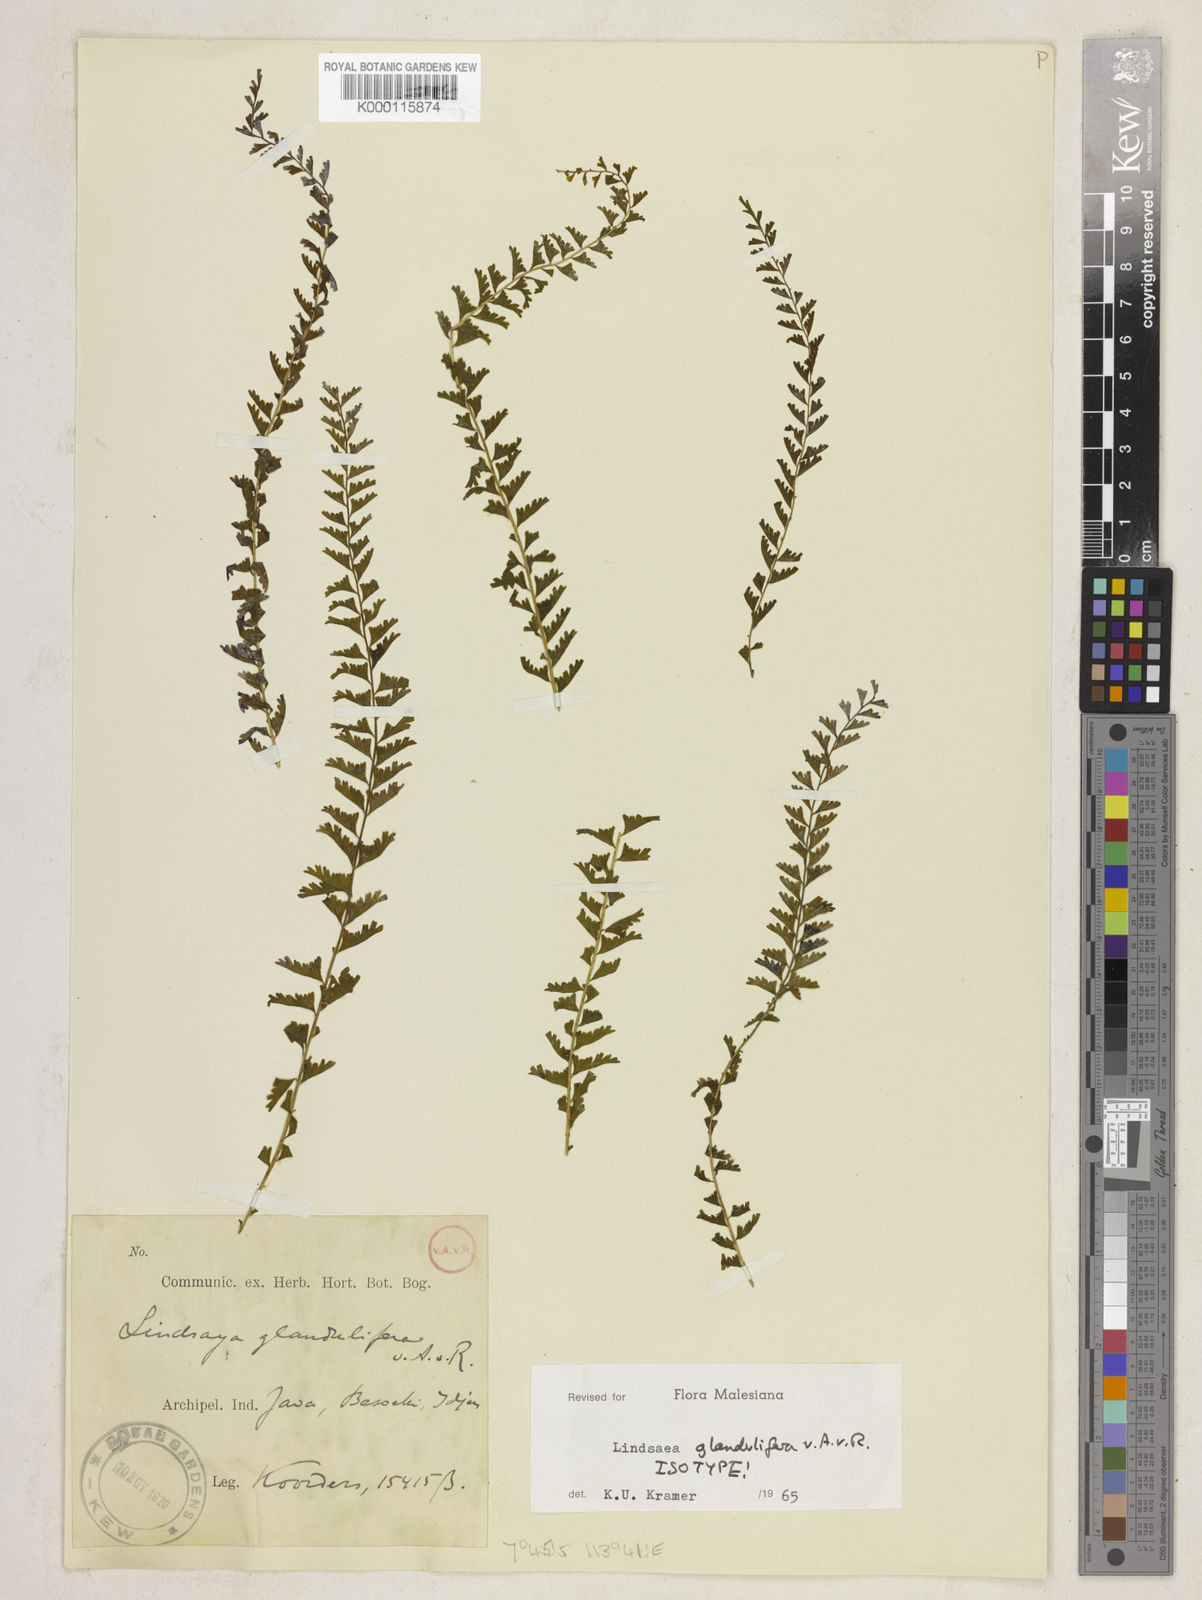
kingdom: Plantae
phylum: Tracheophyta
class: Polypodiopsida
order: Polypodiales
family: Lindsaeaceae
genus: Lindsaea
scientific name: Lindsaea glandulifera
